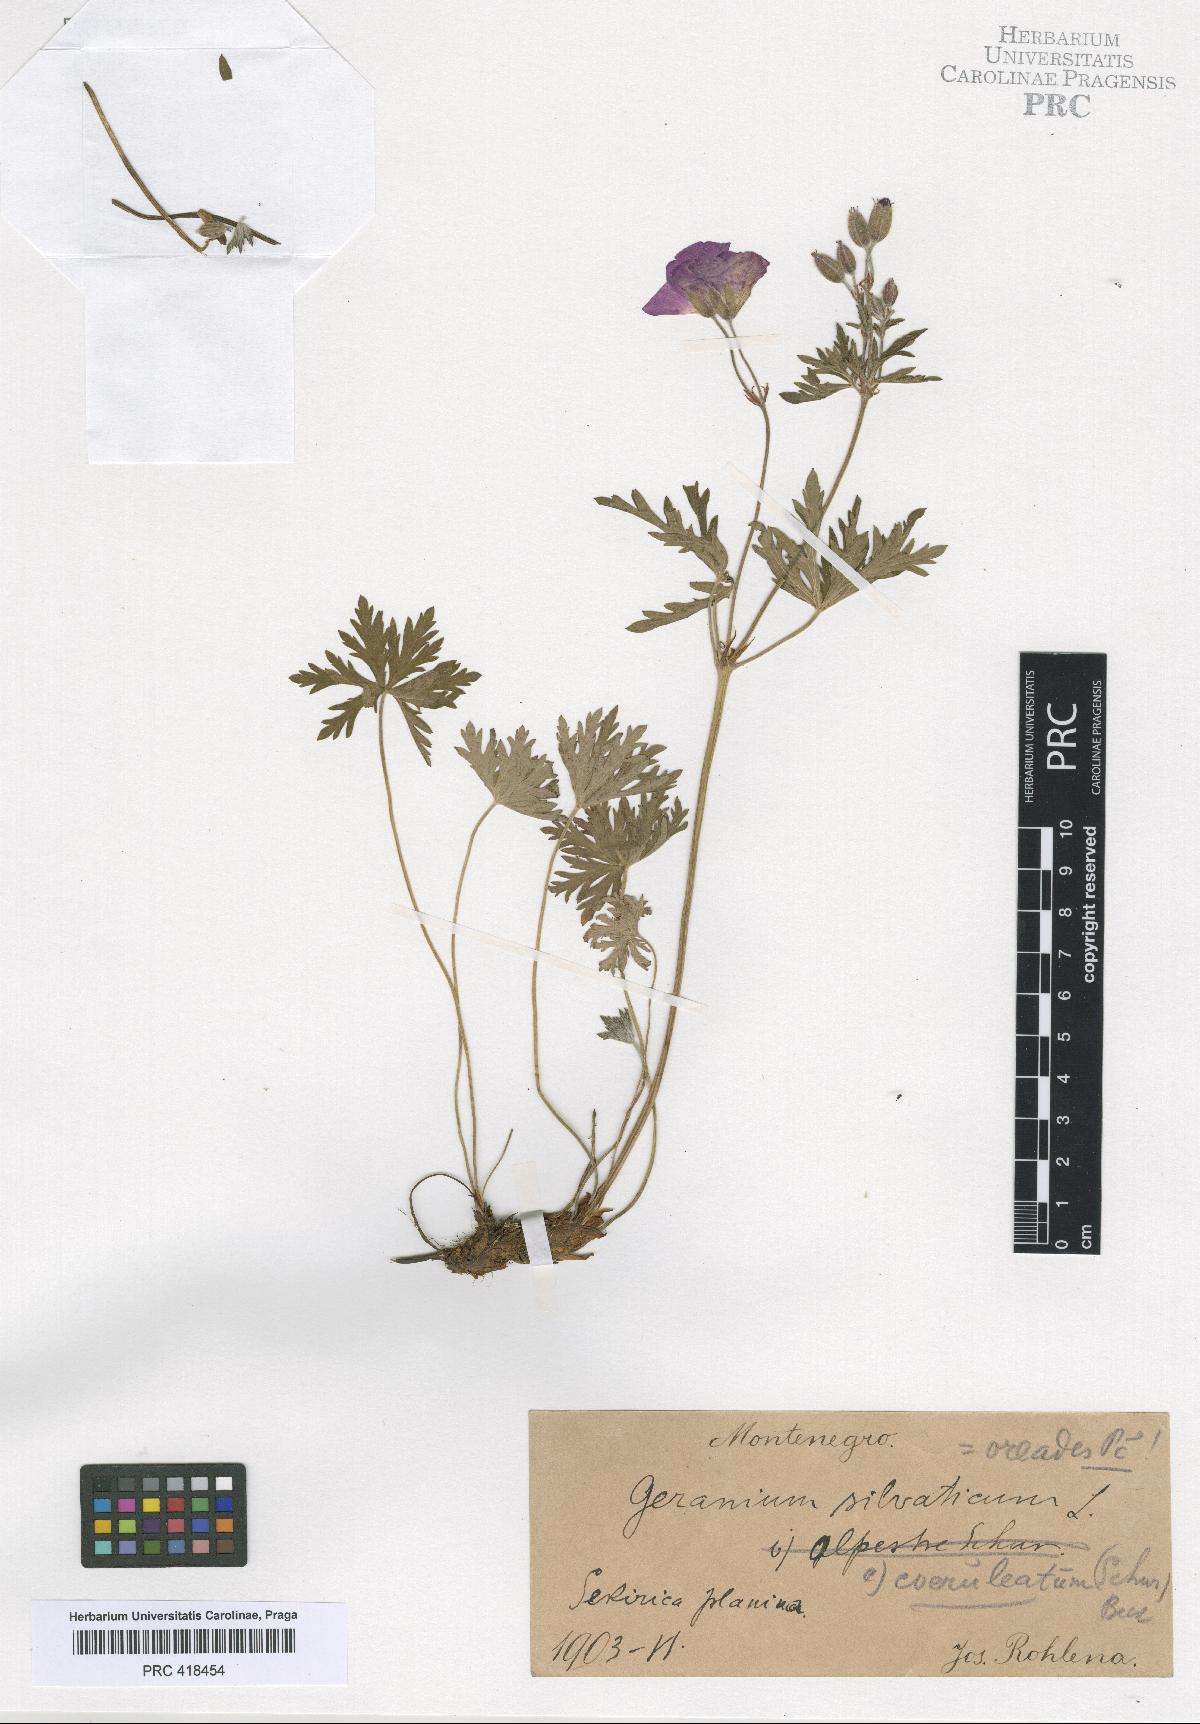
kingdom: Plantae
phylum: Tracheophyta
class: Magnoliopsida
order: Geraniales
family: Geraniaceae
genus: Geranium
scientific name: Geranium caeruleatum
